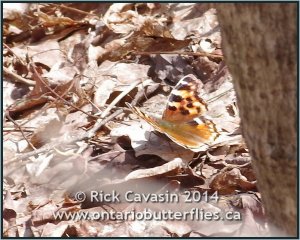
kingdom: Animalia
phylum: Arthropoda
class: Insecta
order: Lepidoptera
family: Nymphalidae
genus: Polygonia
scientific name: Polygonia vaualbum
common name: Compton Tortoiseshell
